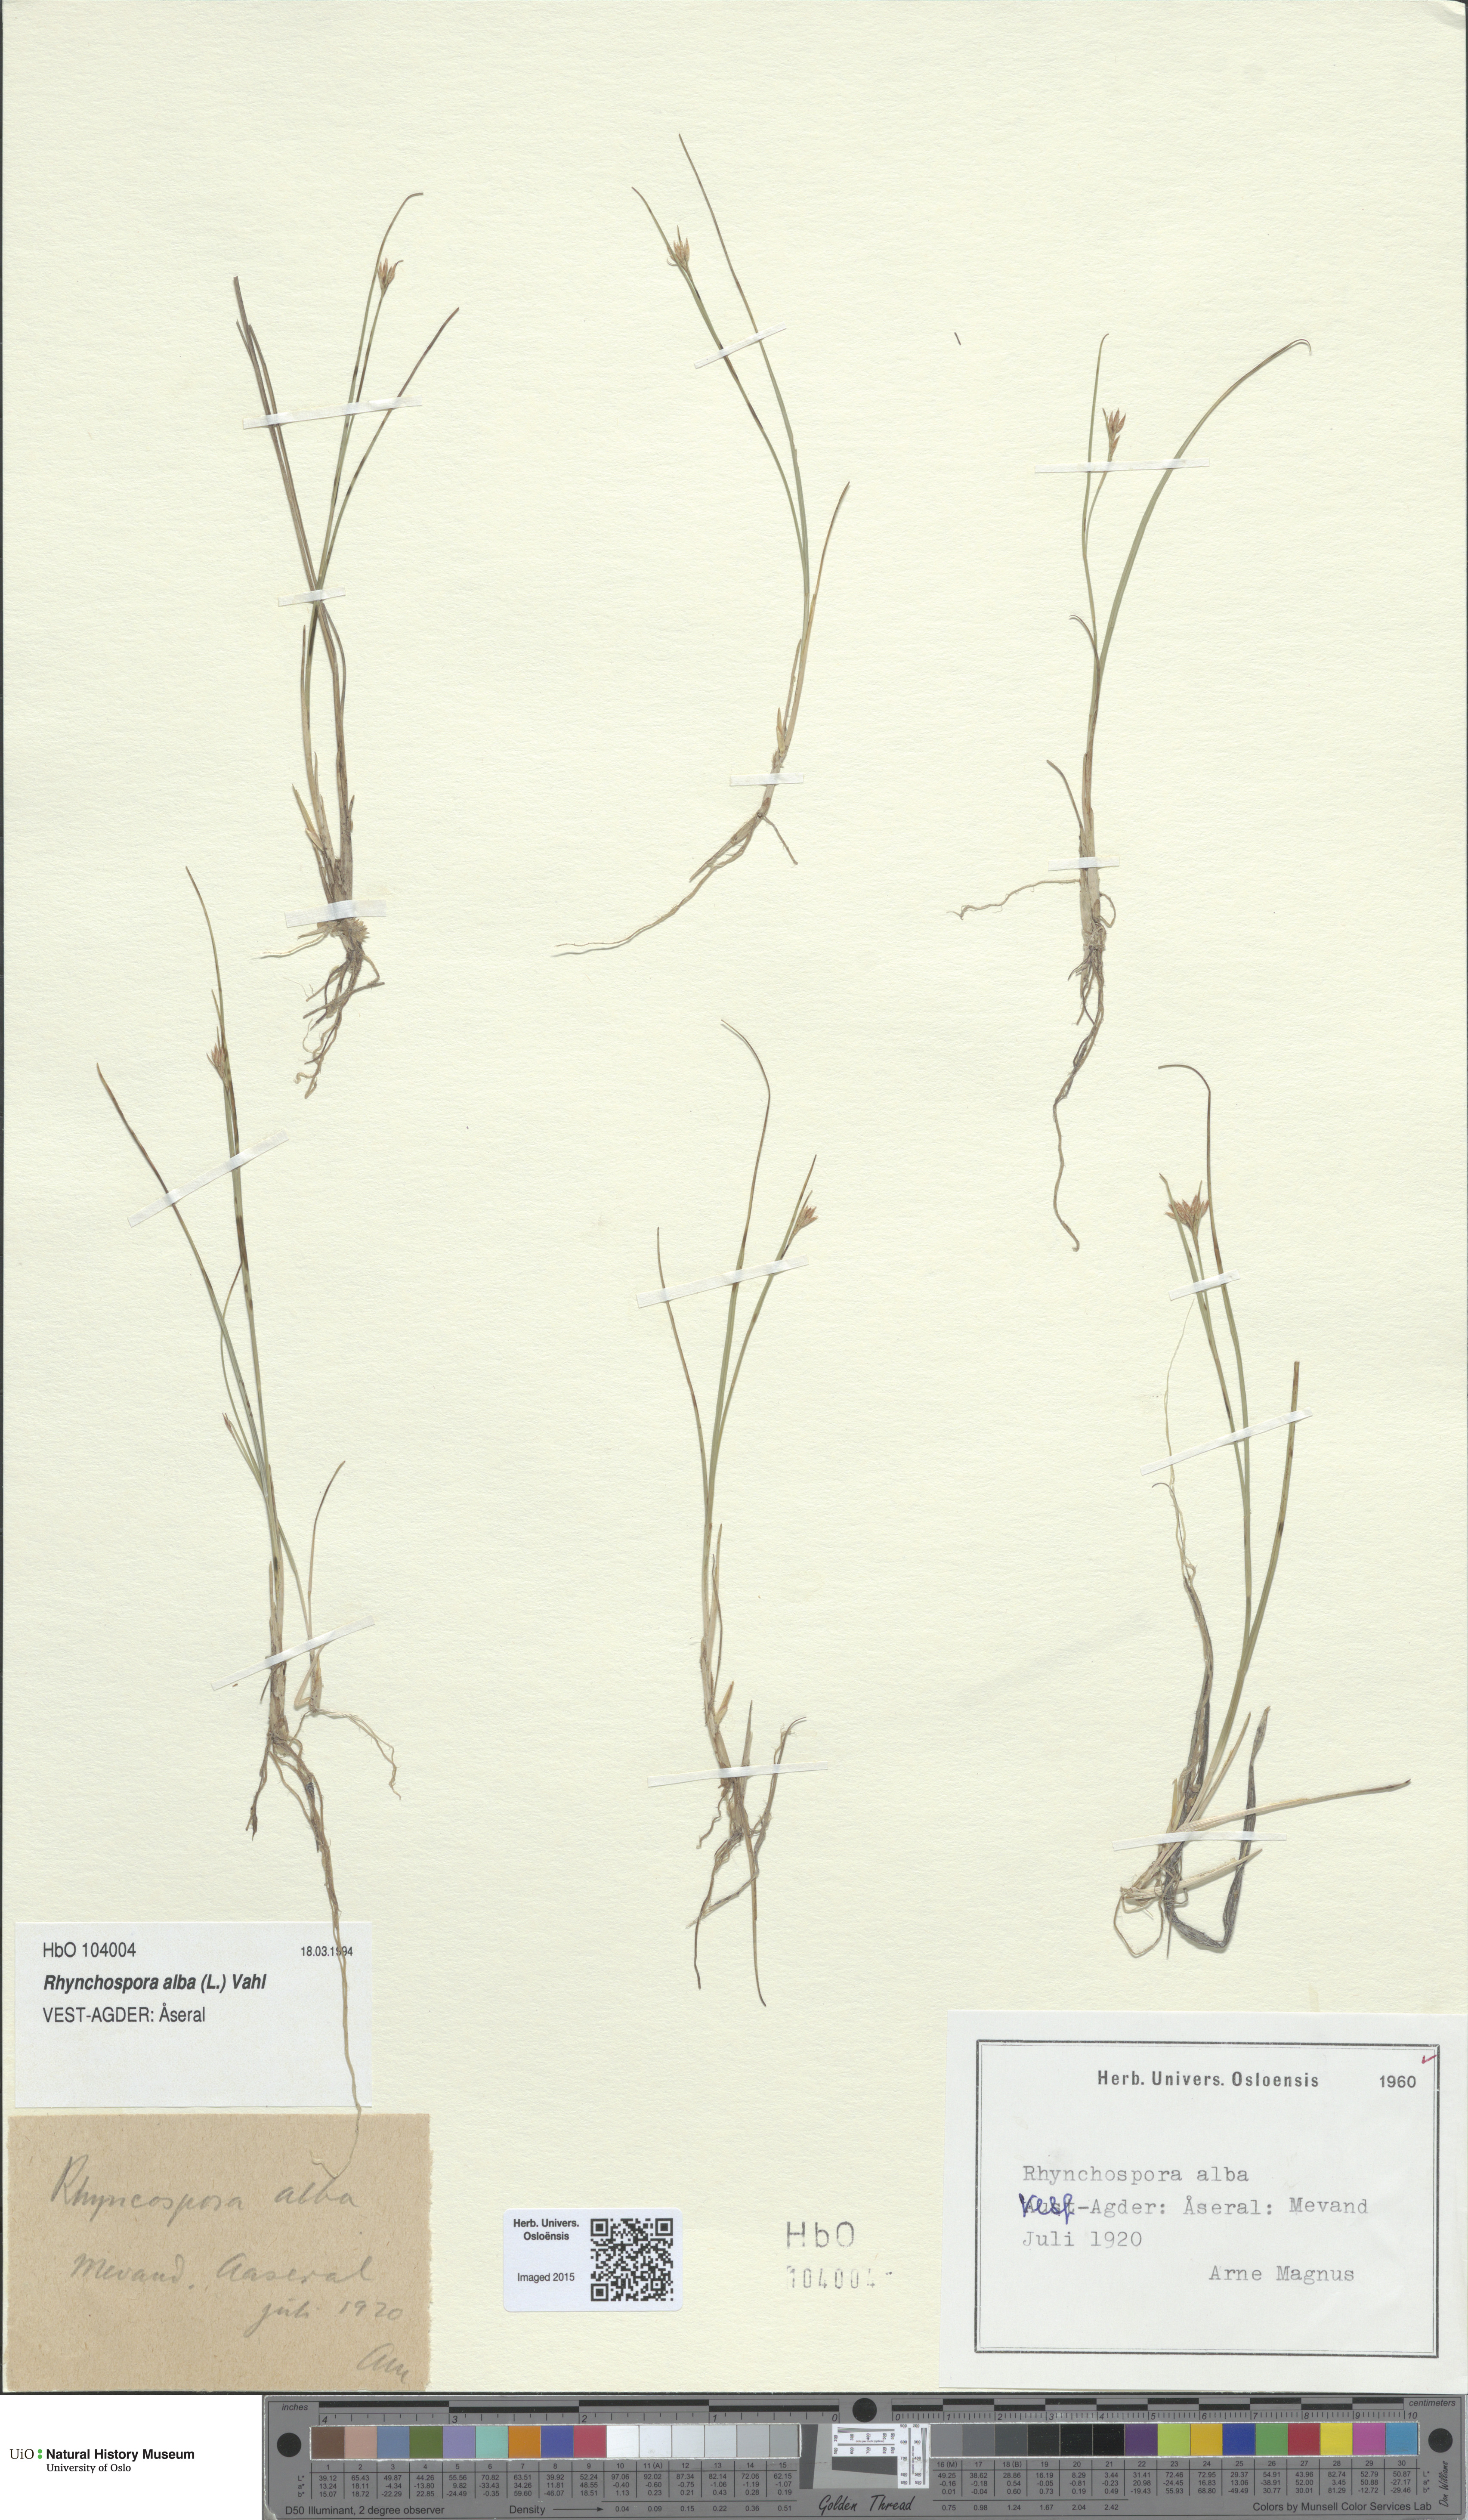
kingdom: Plantae
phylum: Tracheophyta
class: Liliopsida
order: Poales
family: Cyperaceae
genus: Rhynchospora
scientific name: Rhynchospora alba
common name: White beak-sedge
